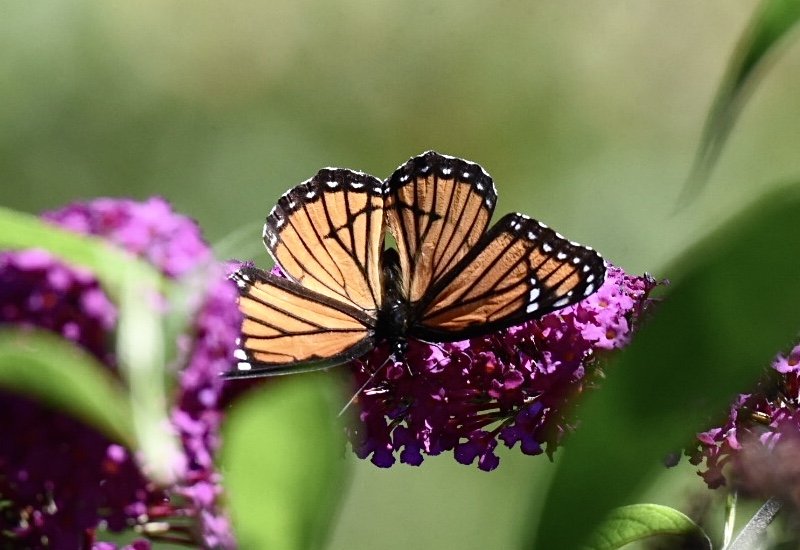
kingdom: Animalia
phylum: Arthropoda
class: Insecta
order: Lepidoptera
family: Nymphalidae
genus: Limenitis
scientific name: Limenitis archippus
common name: Viceroy
